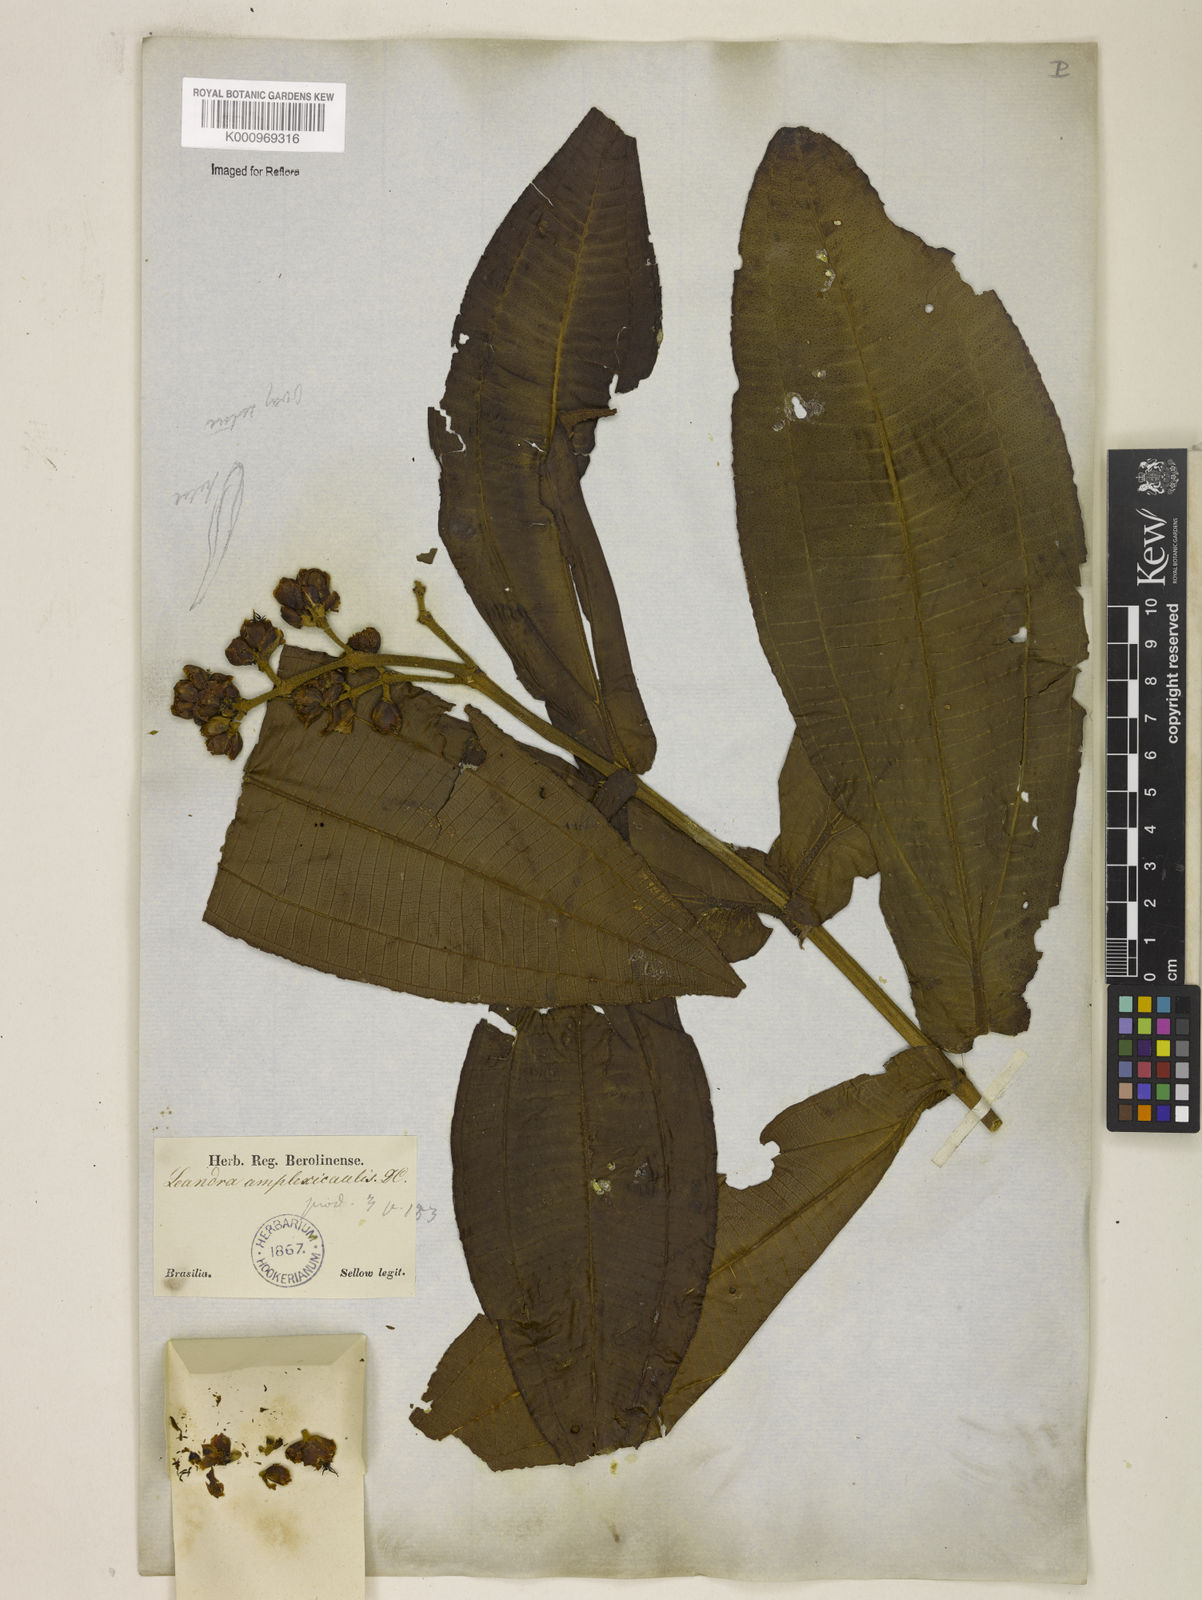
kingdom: Plantae
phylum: Tracheophyta
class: Magnoliopsida
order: Myrtales
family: Melastomataceae
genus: Miconia
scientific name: Miconia pectinata
